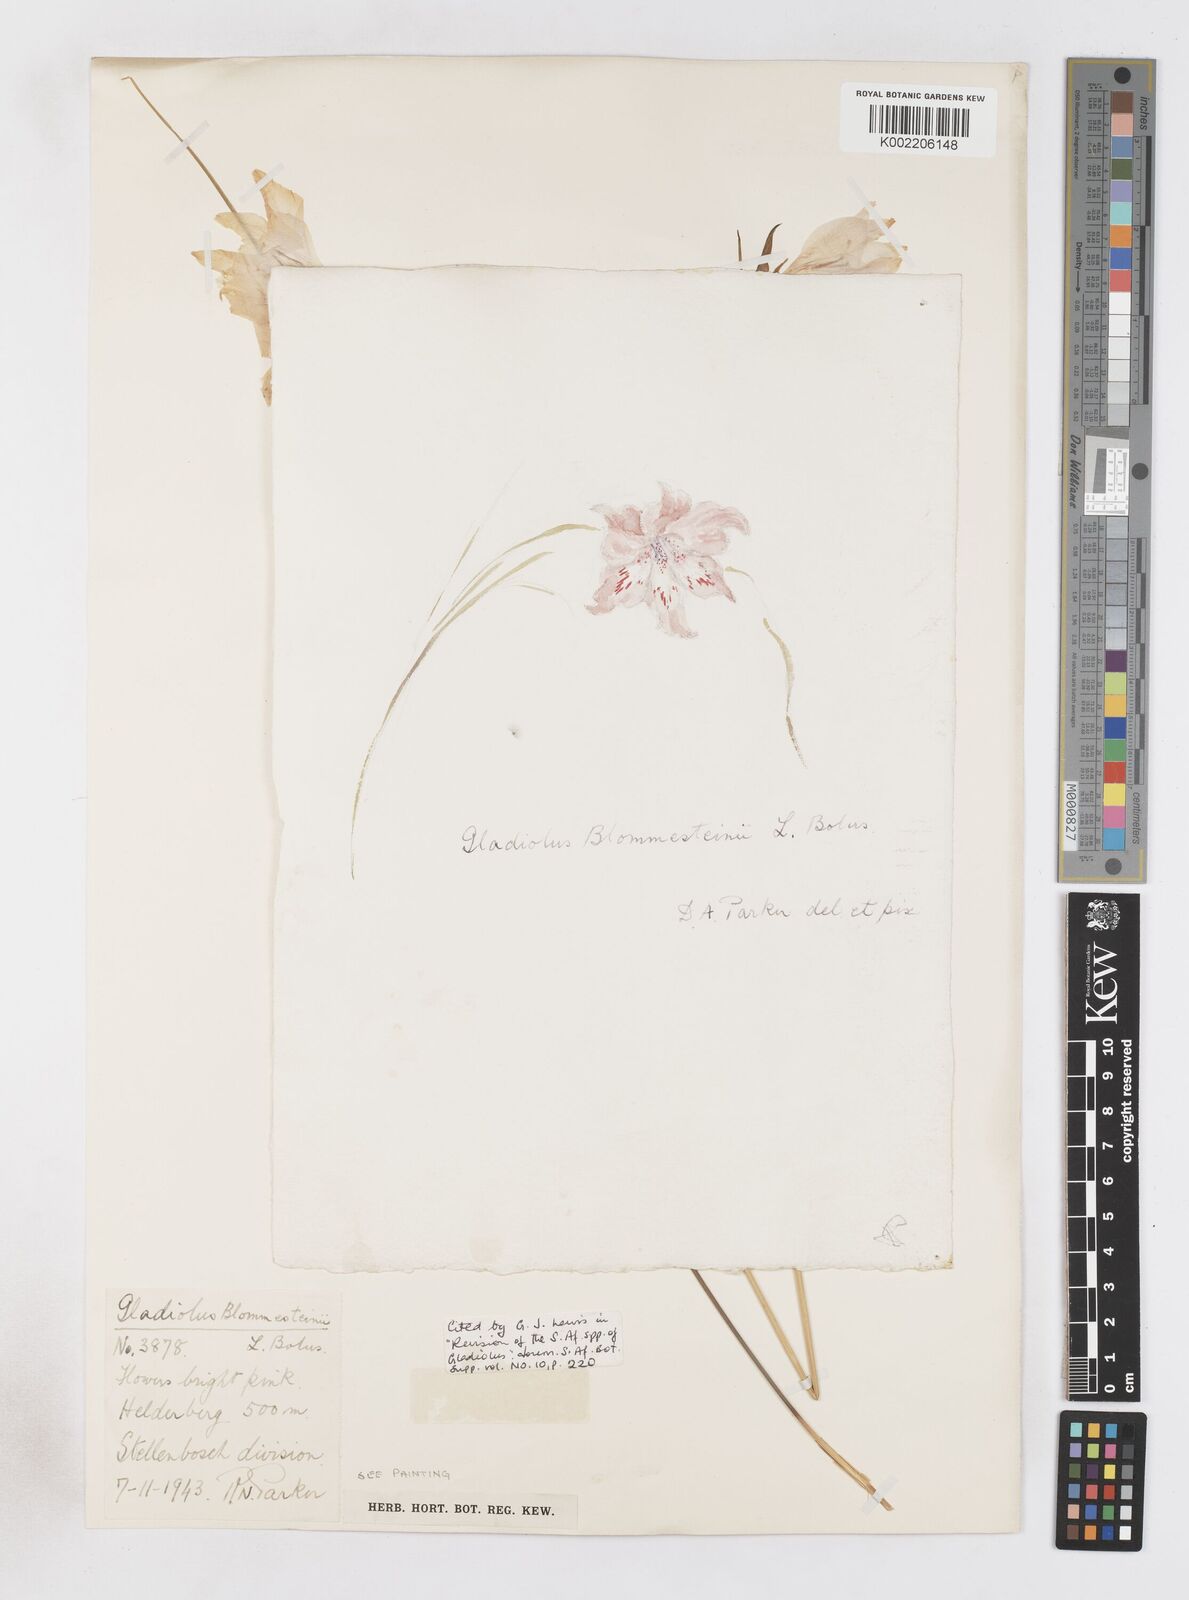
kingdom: Plantae
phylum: Tracheophyta
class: Liliopsida
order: Asparagales
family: Iridaceae
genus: Gladiolus
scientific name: Gladiolus virgatus
